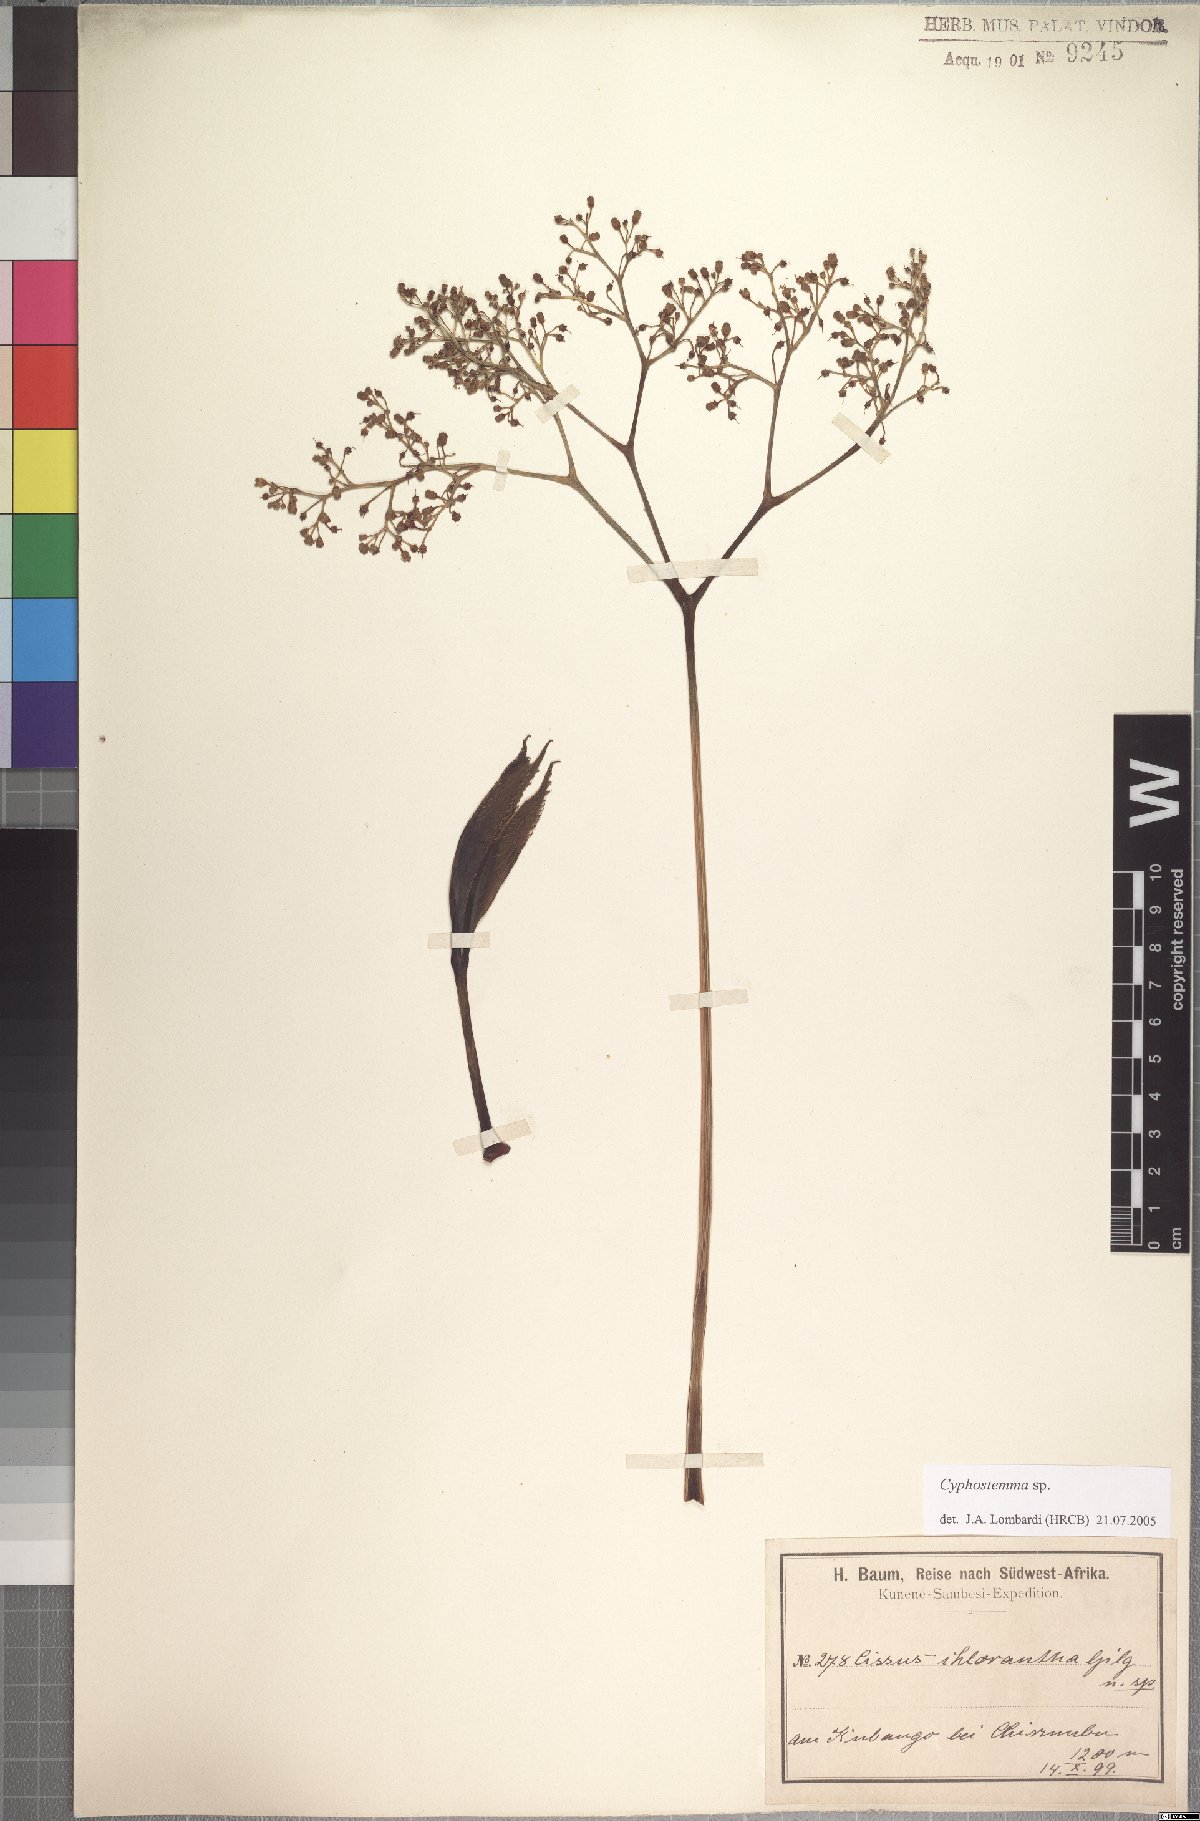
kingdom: Plantae
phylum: Tracheophyta
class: Magnoliopsida
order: Vitales
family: Vitaceae
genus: Cyphostemma
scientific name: Cyphostemma junceum
